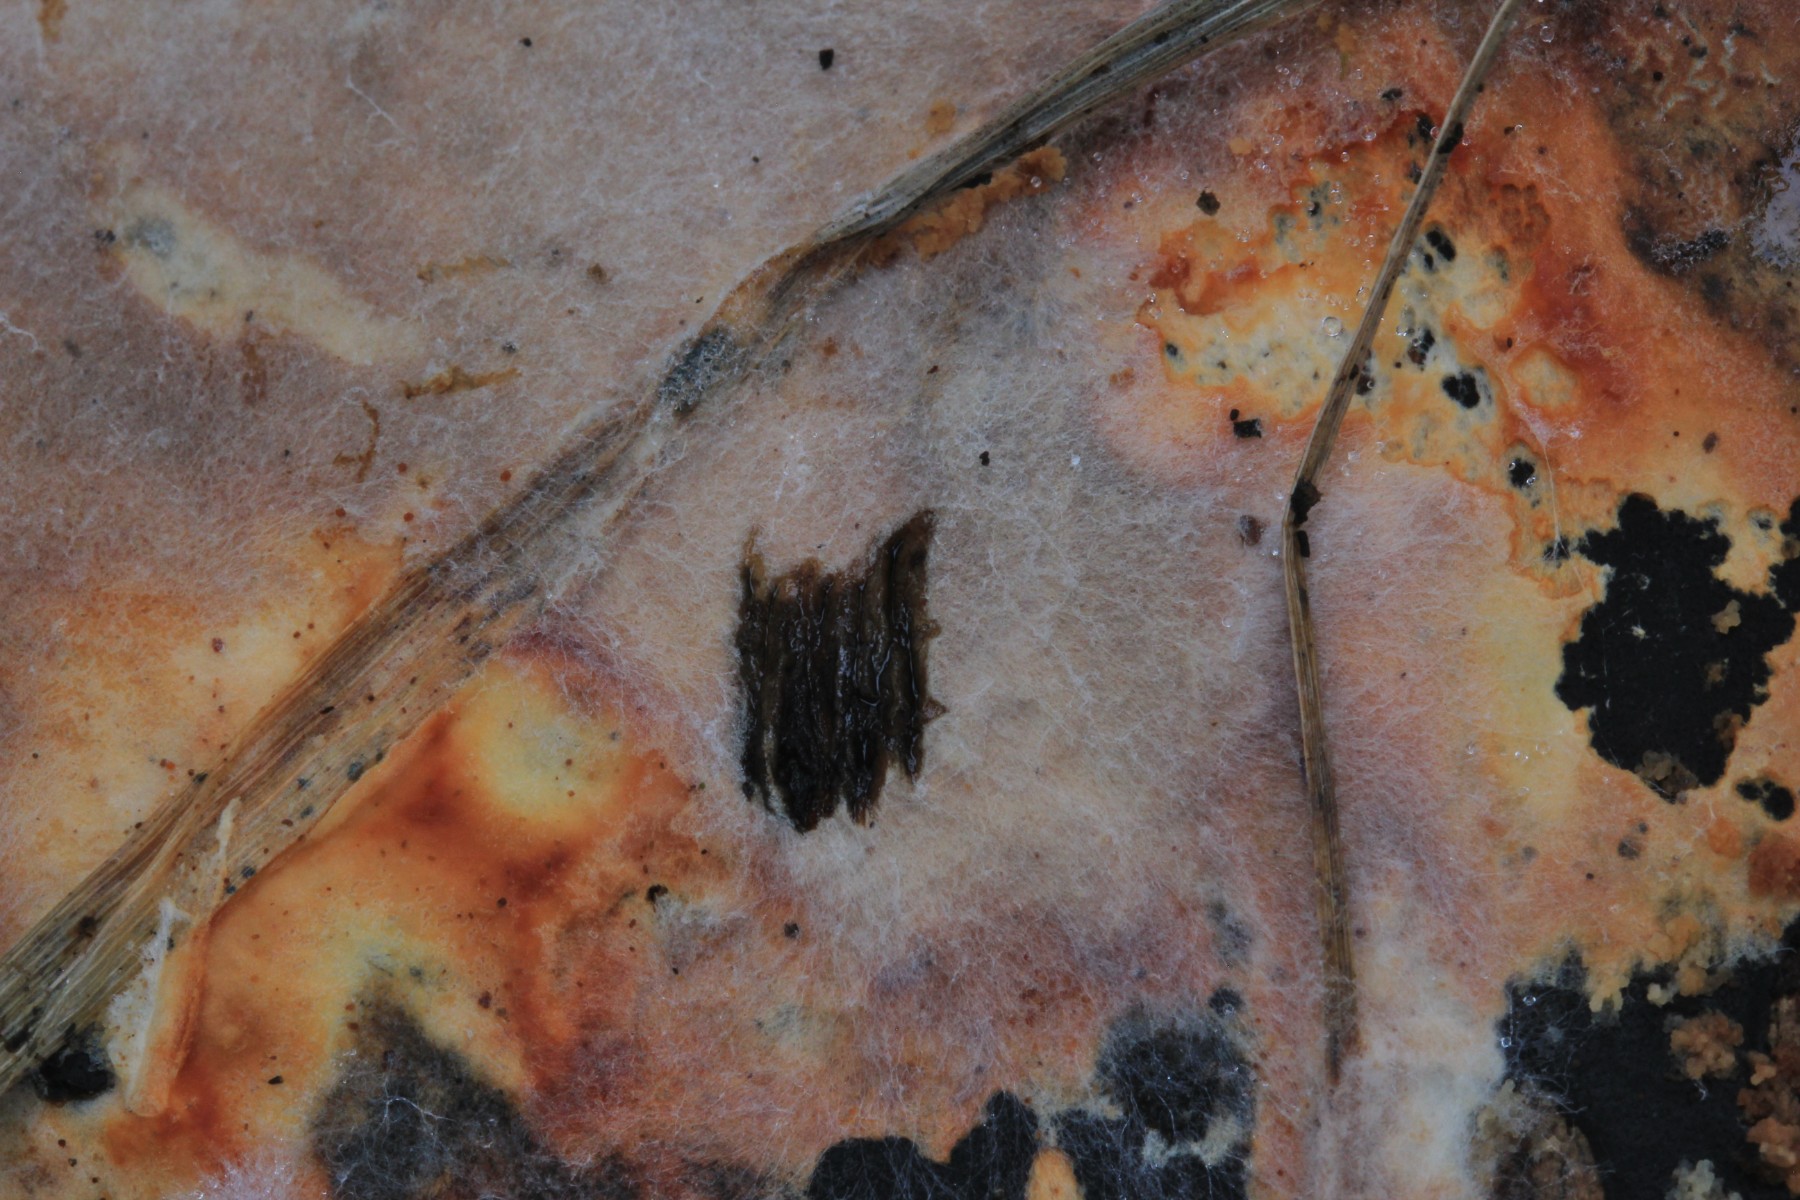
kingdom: Fungi
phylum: Basidiomycota
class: Agaricomycetes
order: Polyporales
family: Phanerochaetaceae
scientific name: Phanerochaetaceae
